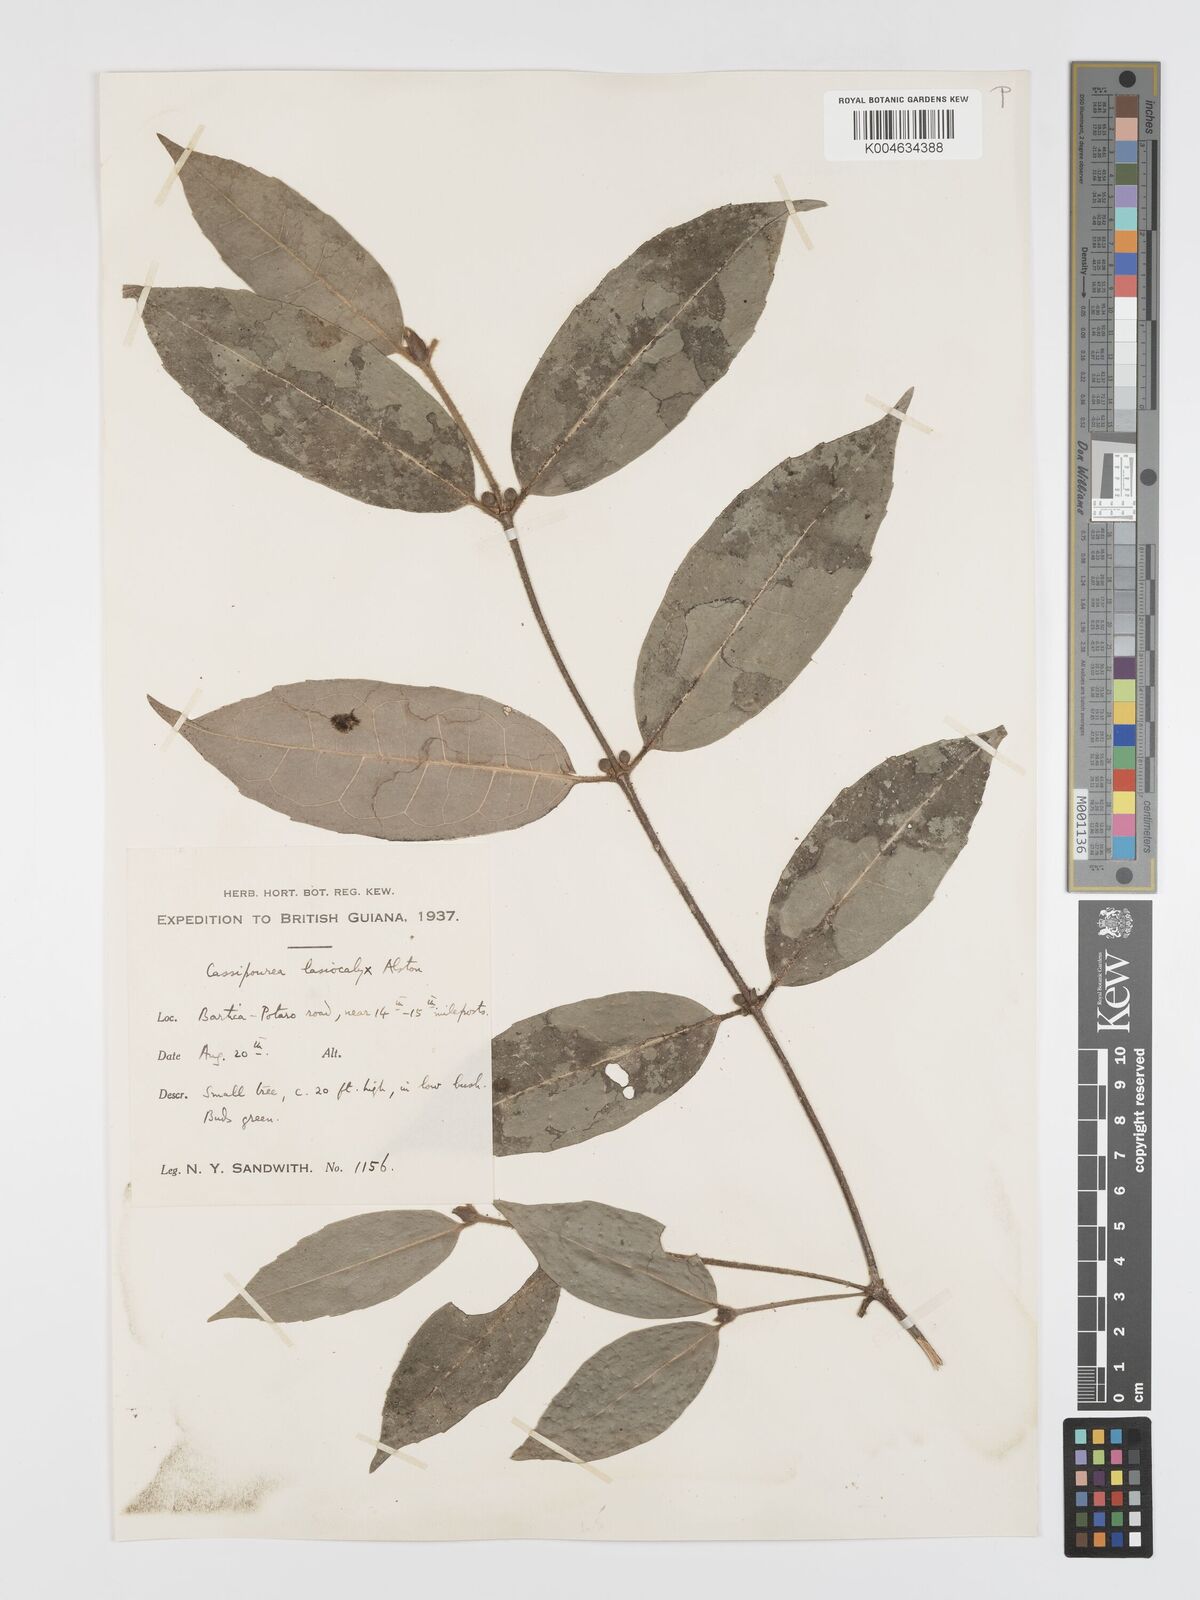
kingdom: Plantae
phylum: Tracheophyta
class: Magnoliopsida
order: Malpighiales
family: Rhizophoraceae
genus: Cassipourea
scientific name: Cassipourea lasiocalyx
